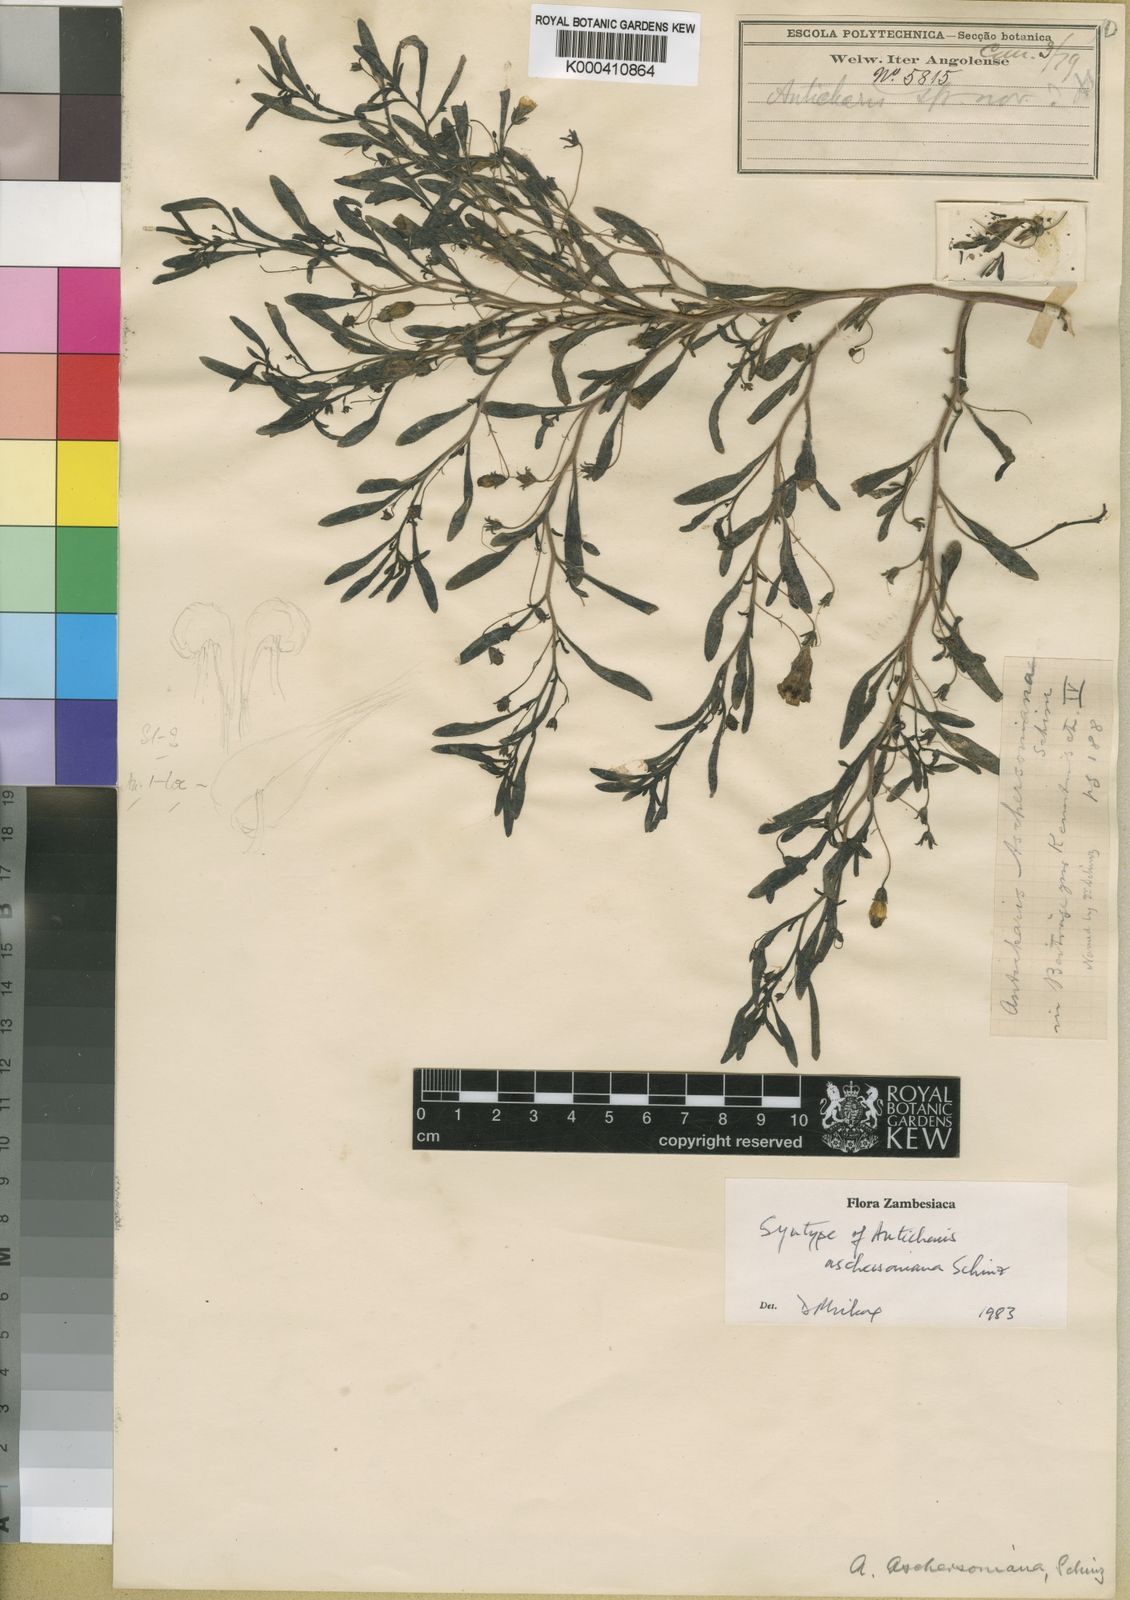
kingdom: Plantae
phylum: Tracheophyta
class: Magnoliopsida
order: Lamiales
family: Scrophulariaceae
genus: Anticharis
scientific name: Anticharis senegalensis
